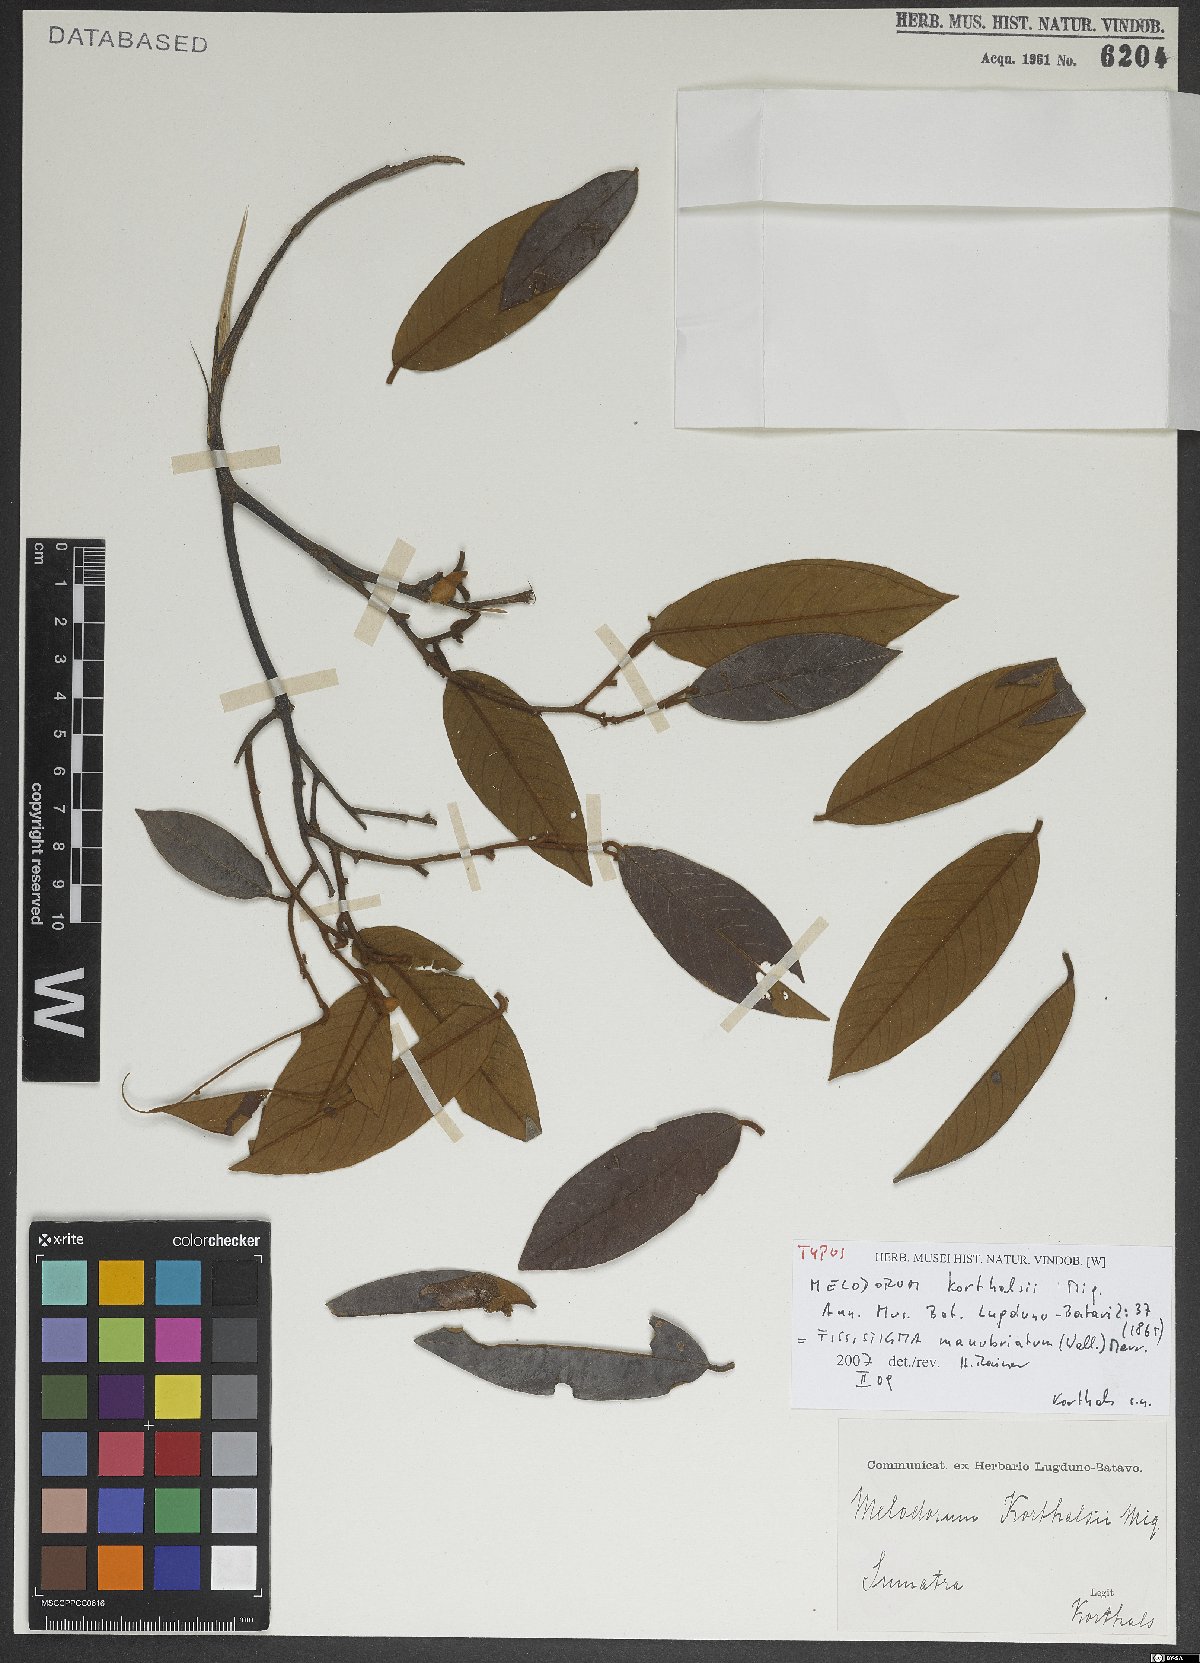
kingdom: Plantae
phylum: Tracheophyta
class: Magnoliopsida
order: Magnoliales
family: Annonaceae
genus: Fissistigma
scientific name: Fissistigma manubriatum
